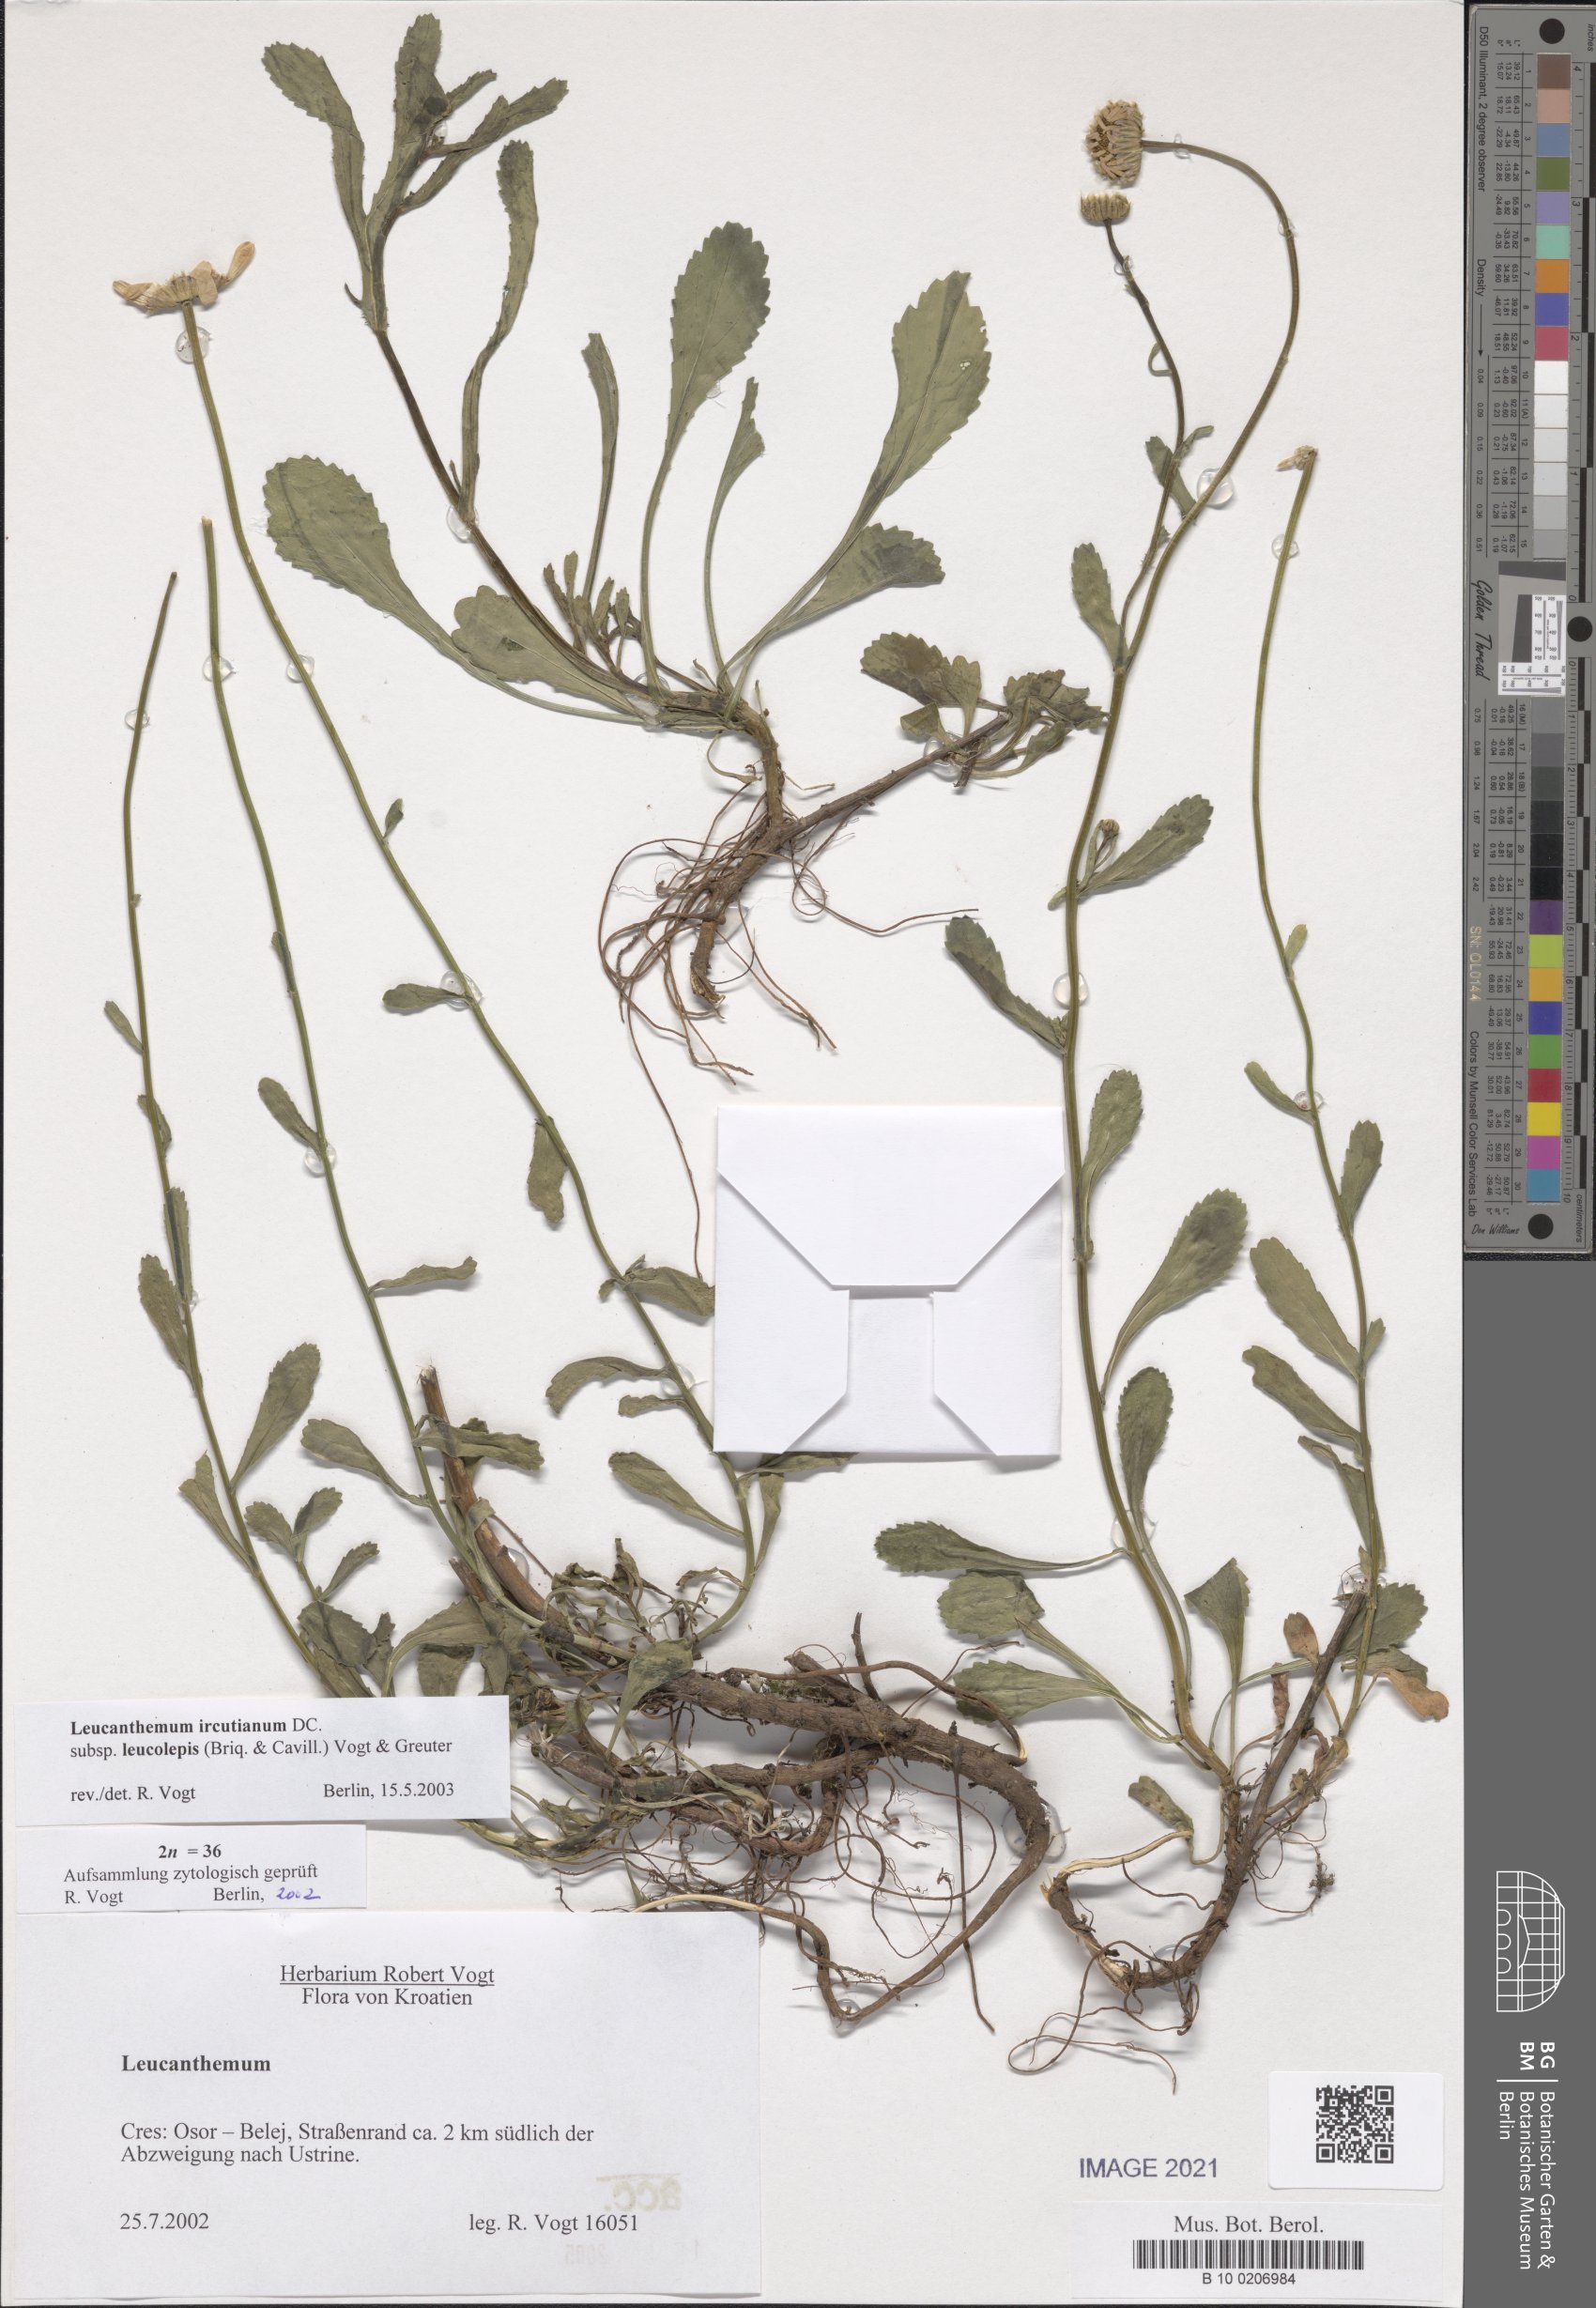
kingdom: Plantae
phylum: Tracheophyta
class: Magnoliopsida
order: Asterales
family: Asteraceae
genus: Leucanthemum
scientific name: Leucanthemum ircutianum
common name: Daisy
